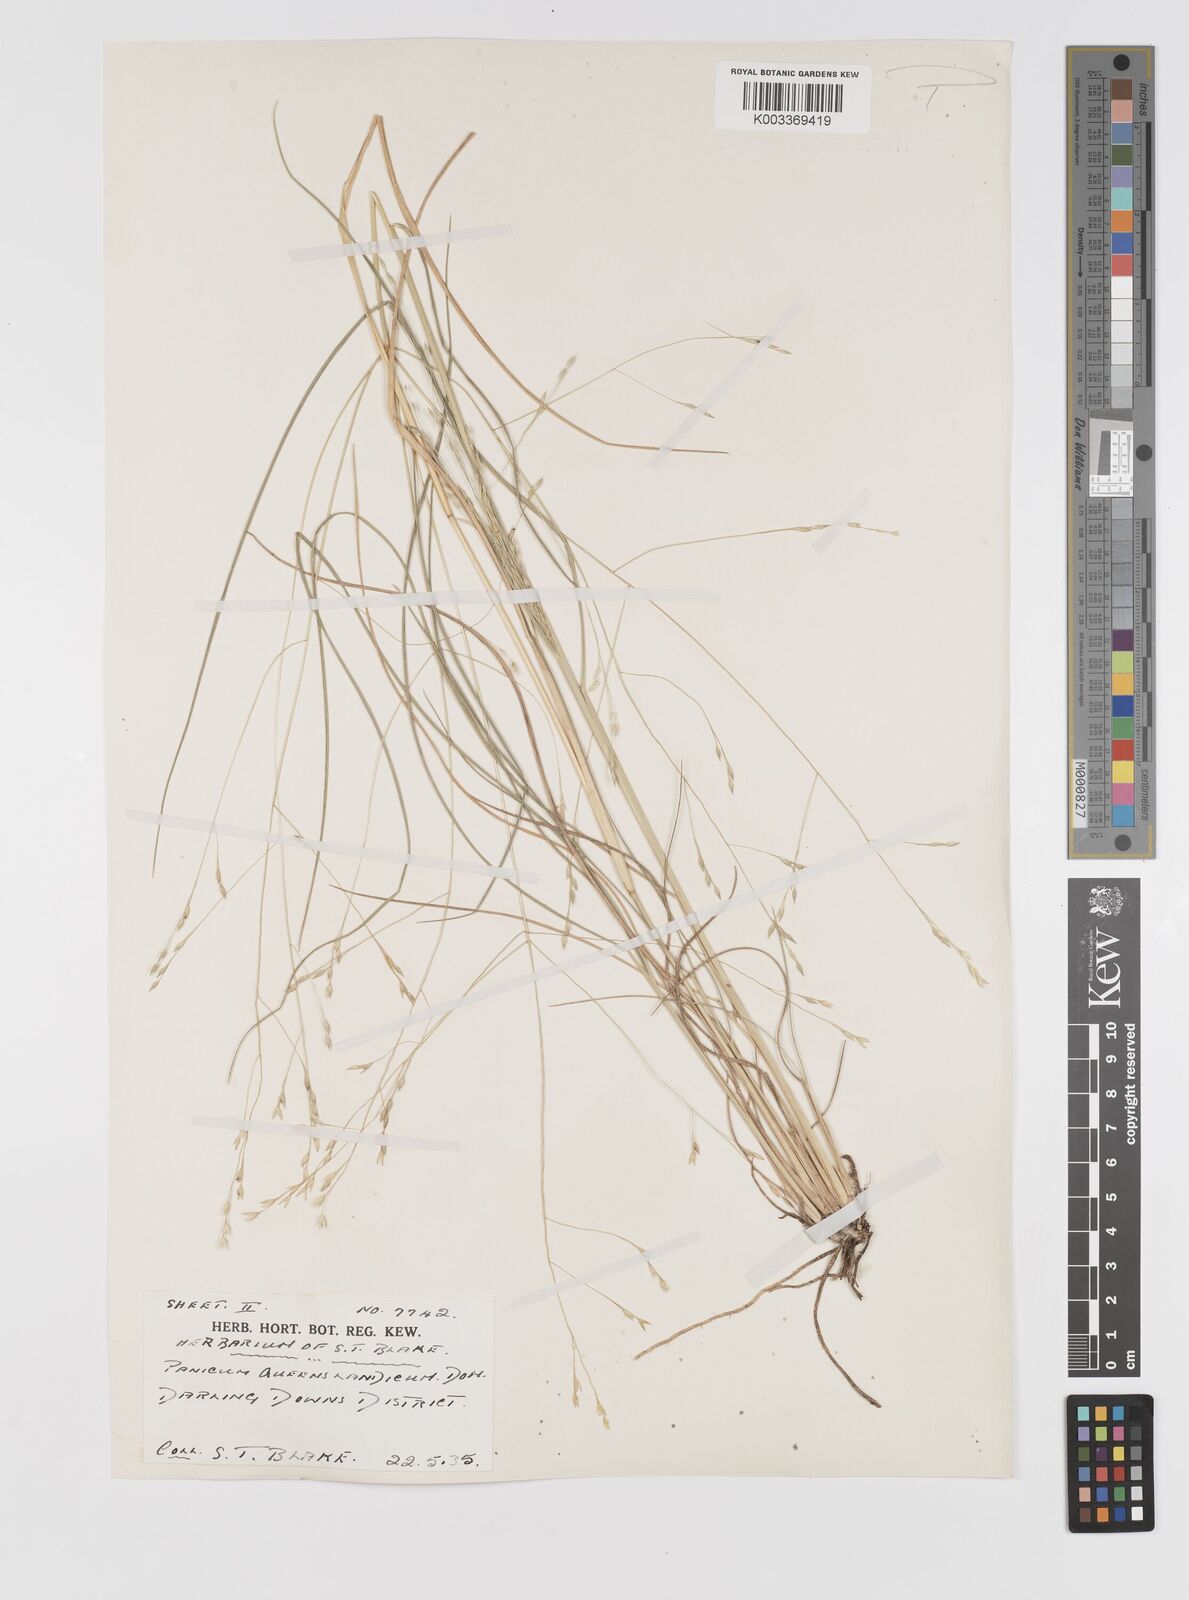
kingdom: Plantae
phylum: Tracheophyta
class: Liliopsida
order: Poales
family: Poaceae
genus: Panicum
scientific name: Panicum queenslandicum
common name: Yabila grass
